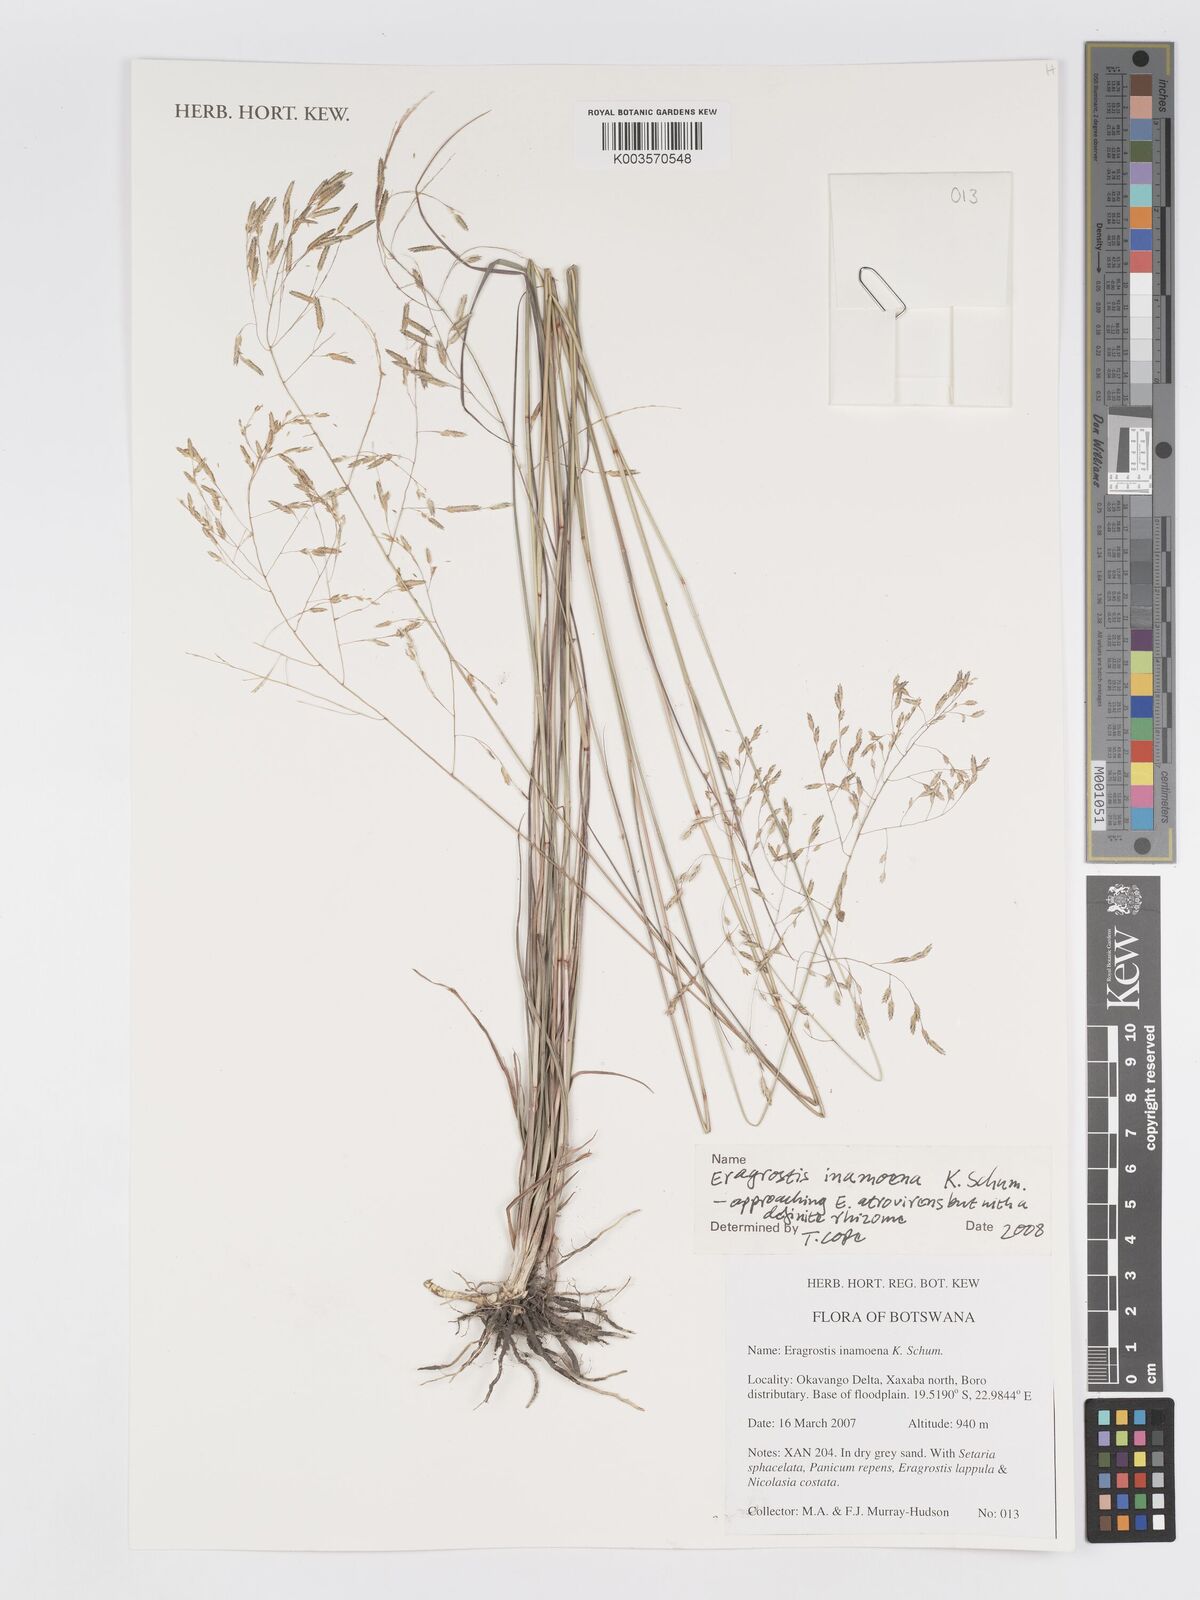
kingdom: Plantae
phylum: Tracheophyta
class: Liliopsida
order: Poales
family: Poaceae
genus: Eragrostis
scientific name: Eragrostis inamoena
